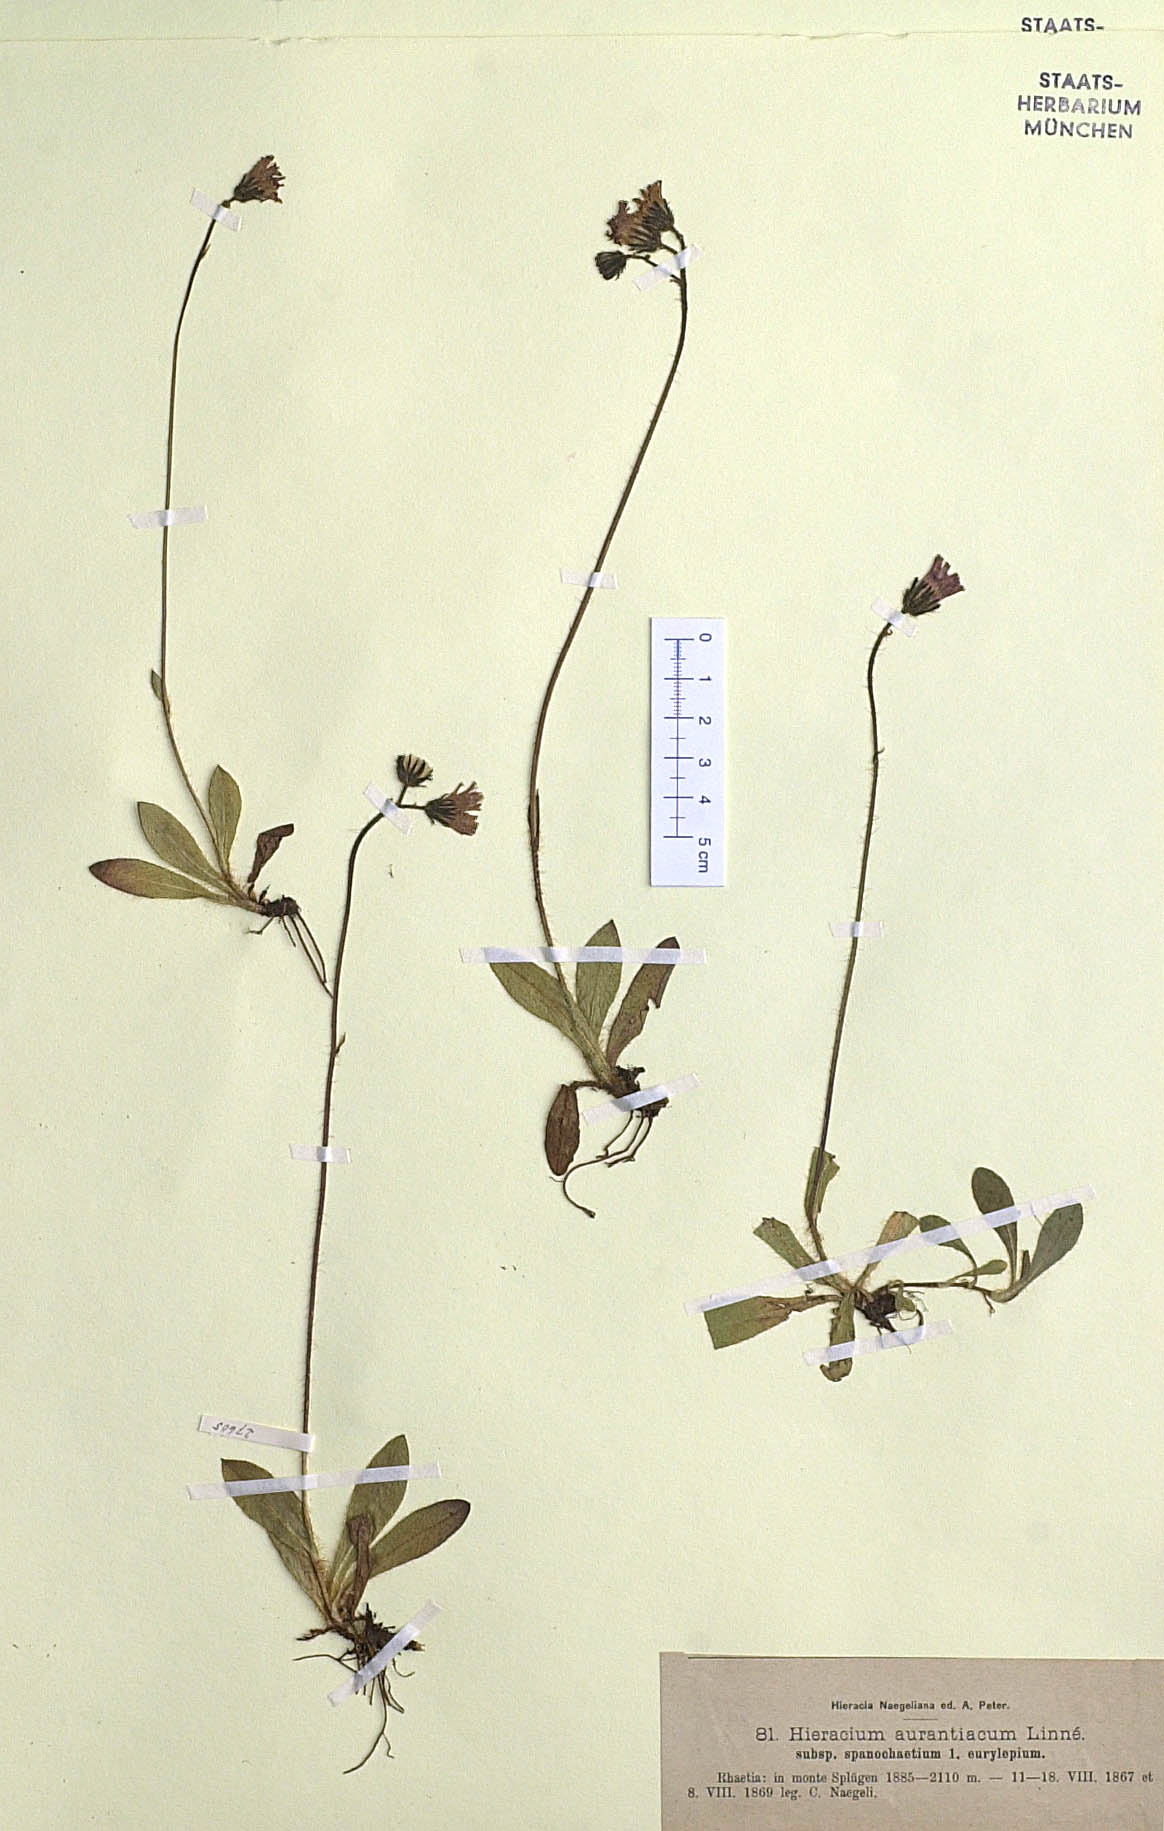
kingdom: Plantae
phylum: Tracheophyta
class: Magnoliopsida
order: Asterales
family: Asteraceae
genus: Pilosella
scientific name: Pilosella aurantiaca
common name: Fox-and-cubs
